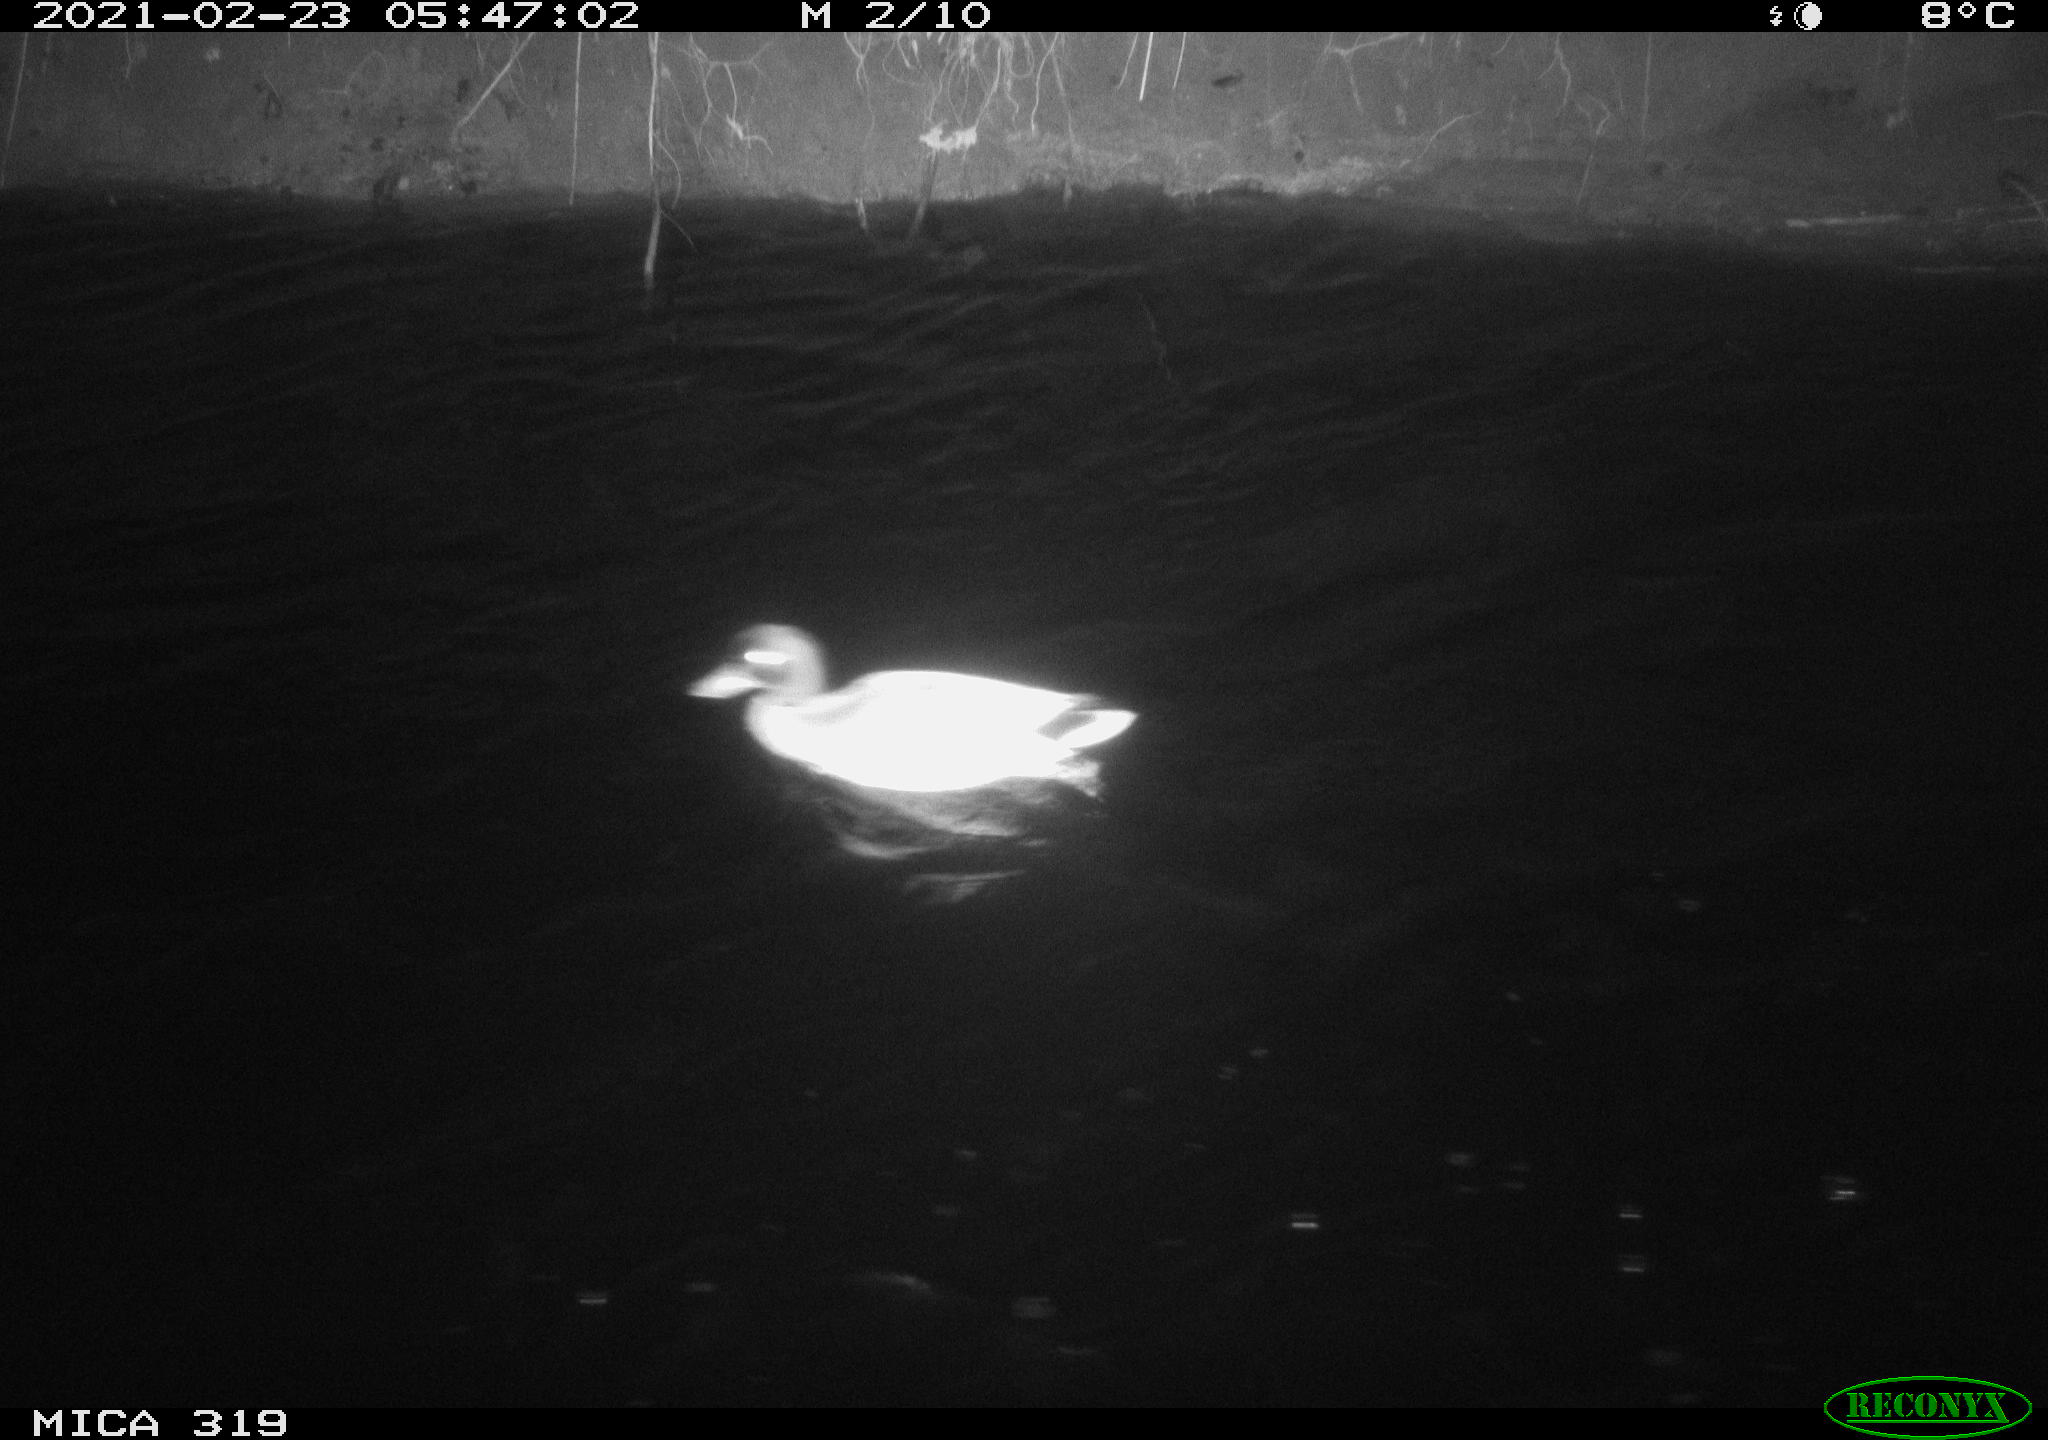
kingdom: Animalia
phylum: Chordata
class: Aves
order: Anseriformes
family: Anatidae
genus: Anas
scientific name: Anas platyrhynchos
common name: Mallard
